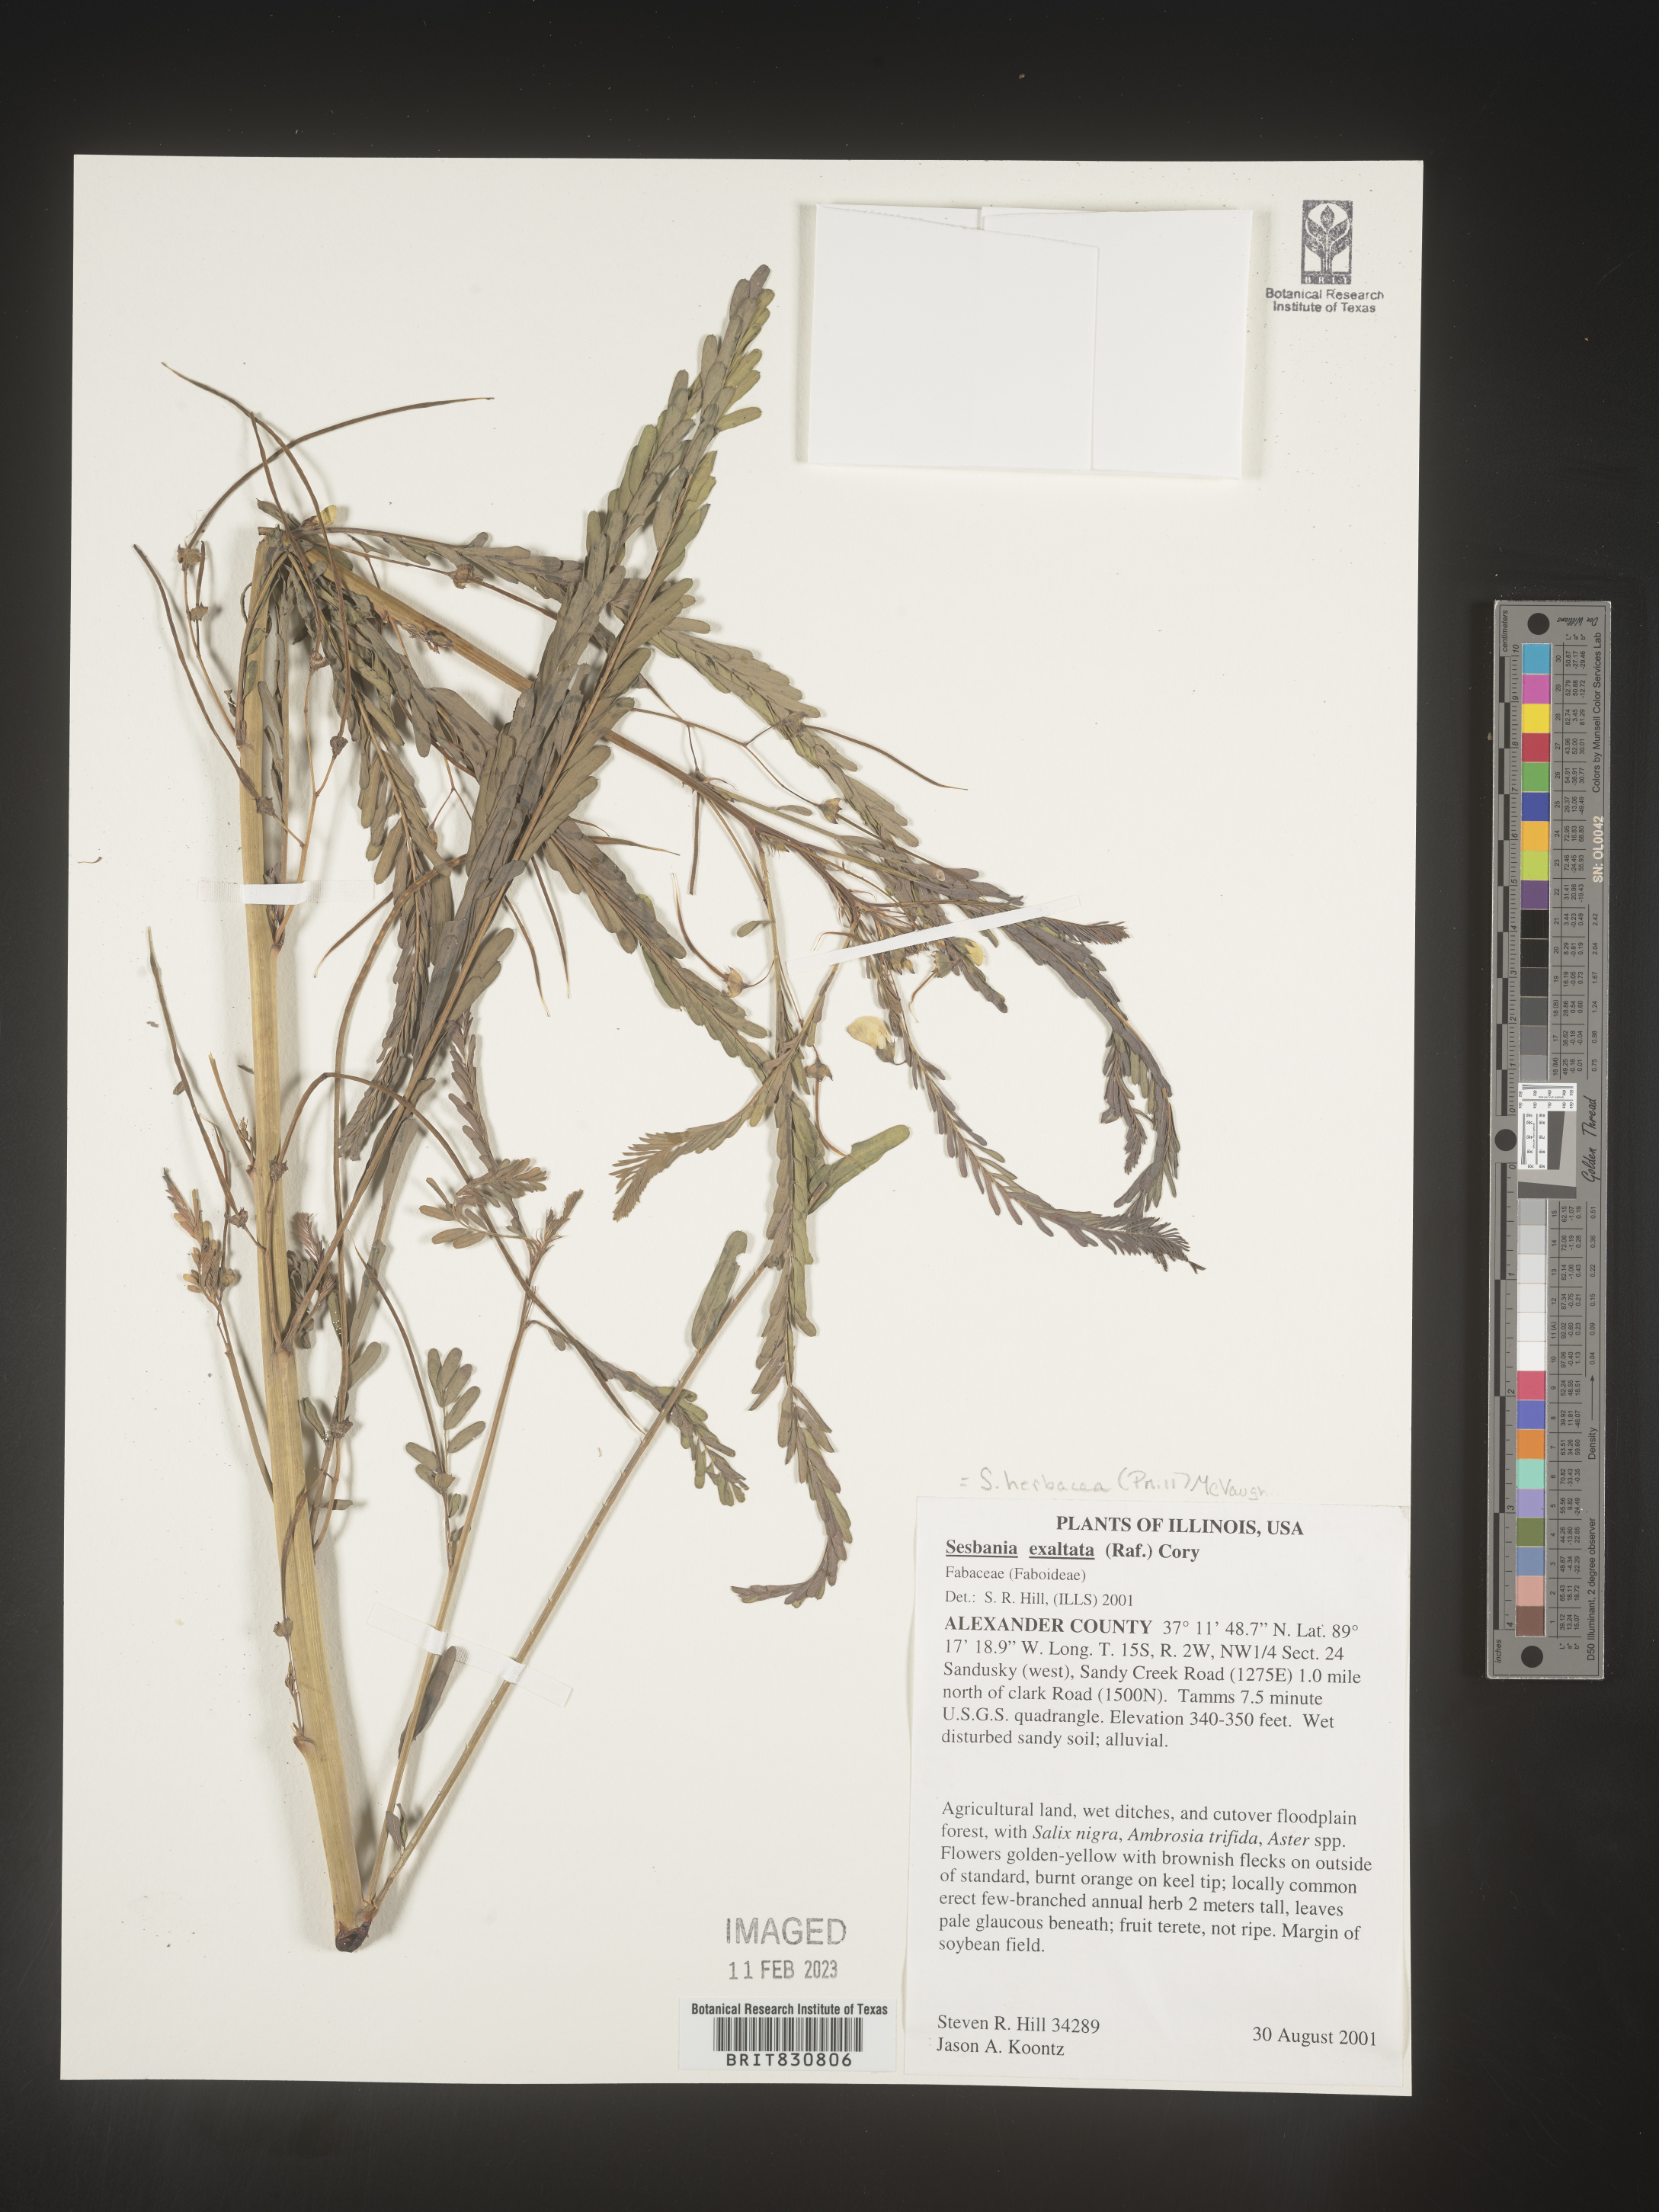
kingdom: Plantae
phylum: Tracheophyta
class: Magnoliopsida
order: Fabales
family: Fabaceae
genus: Sesbania
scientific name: Sesbania herbacea
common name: Bigpod sesbania
